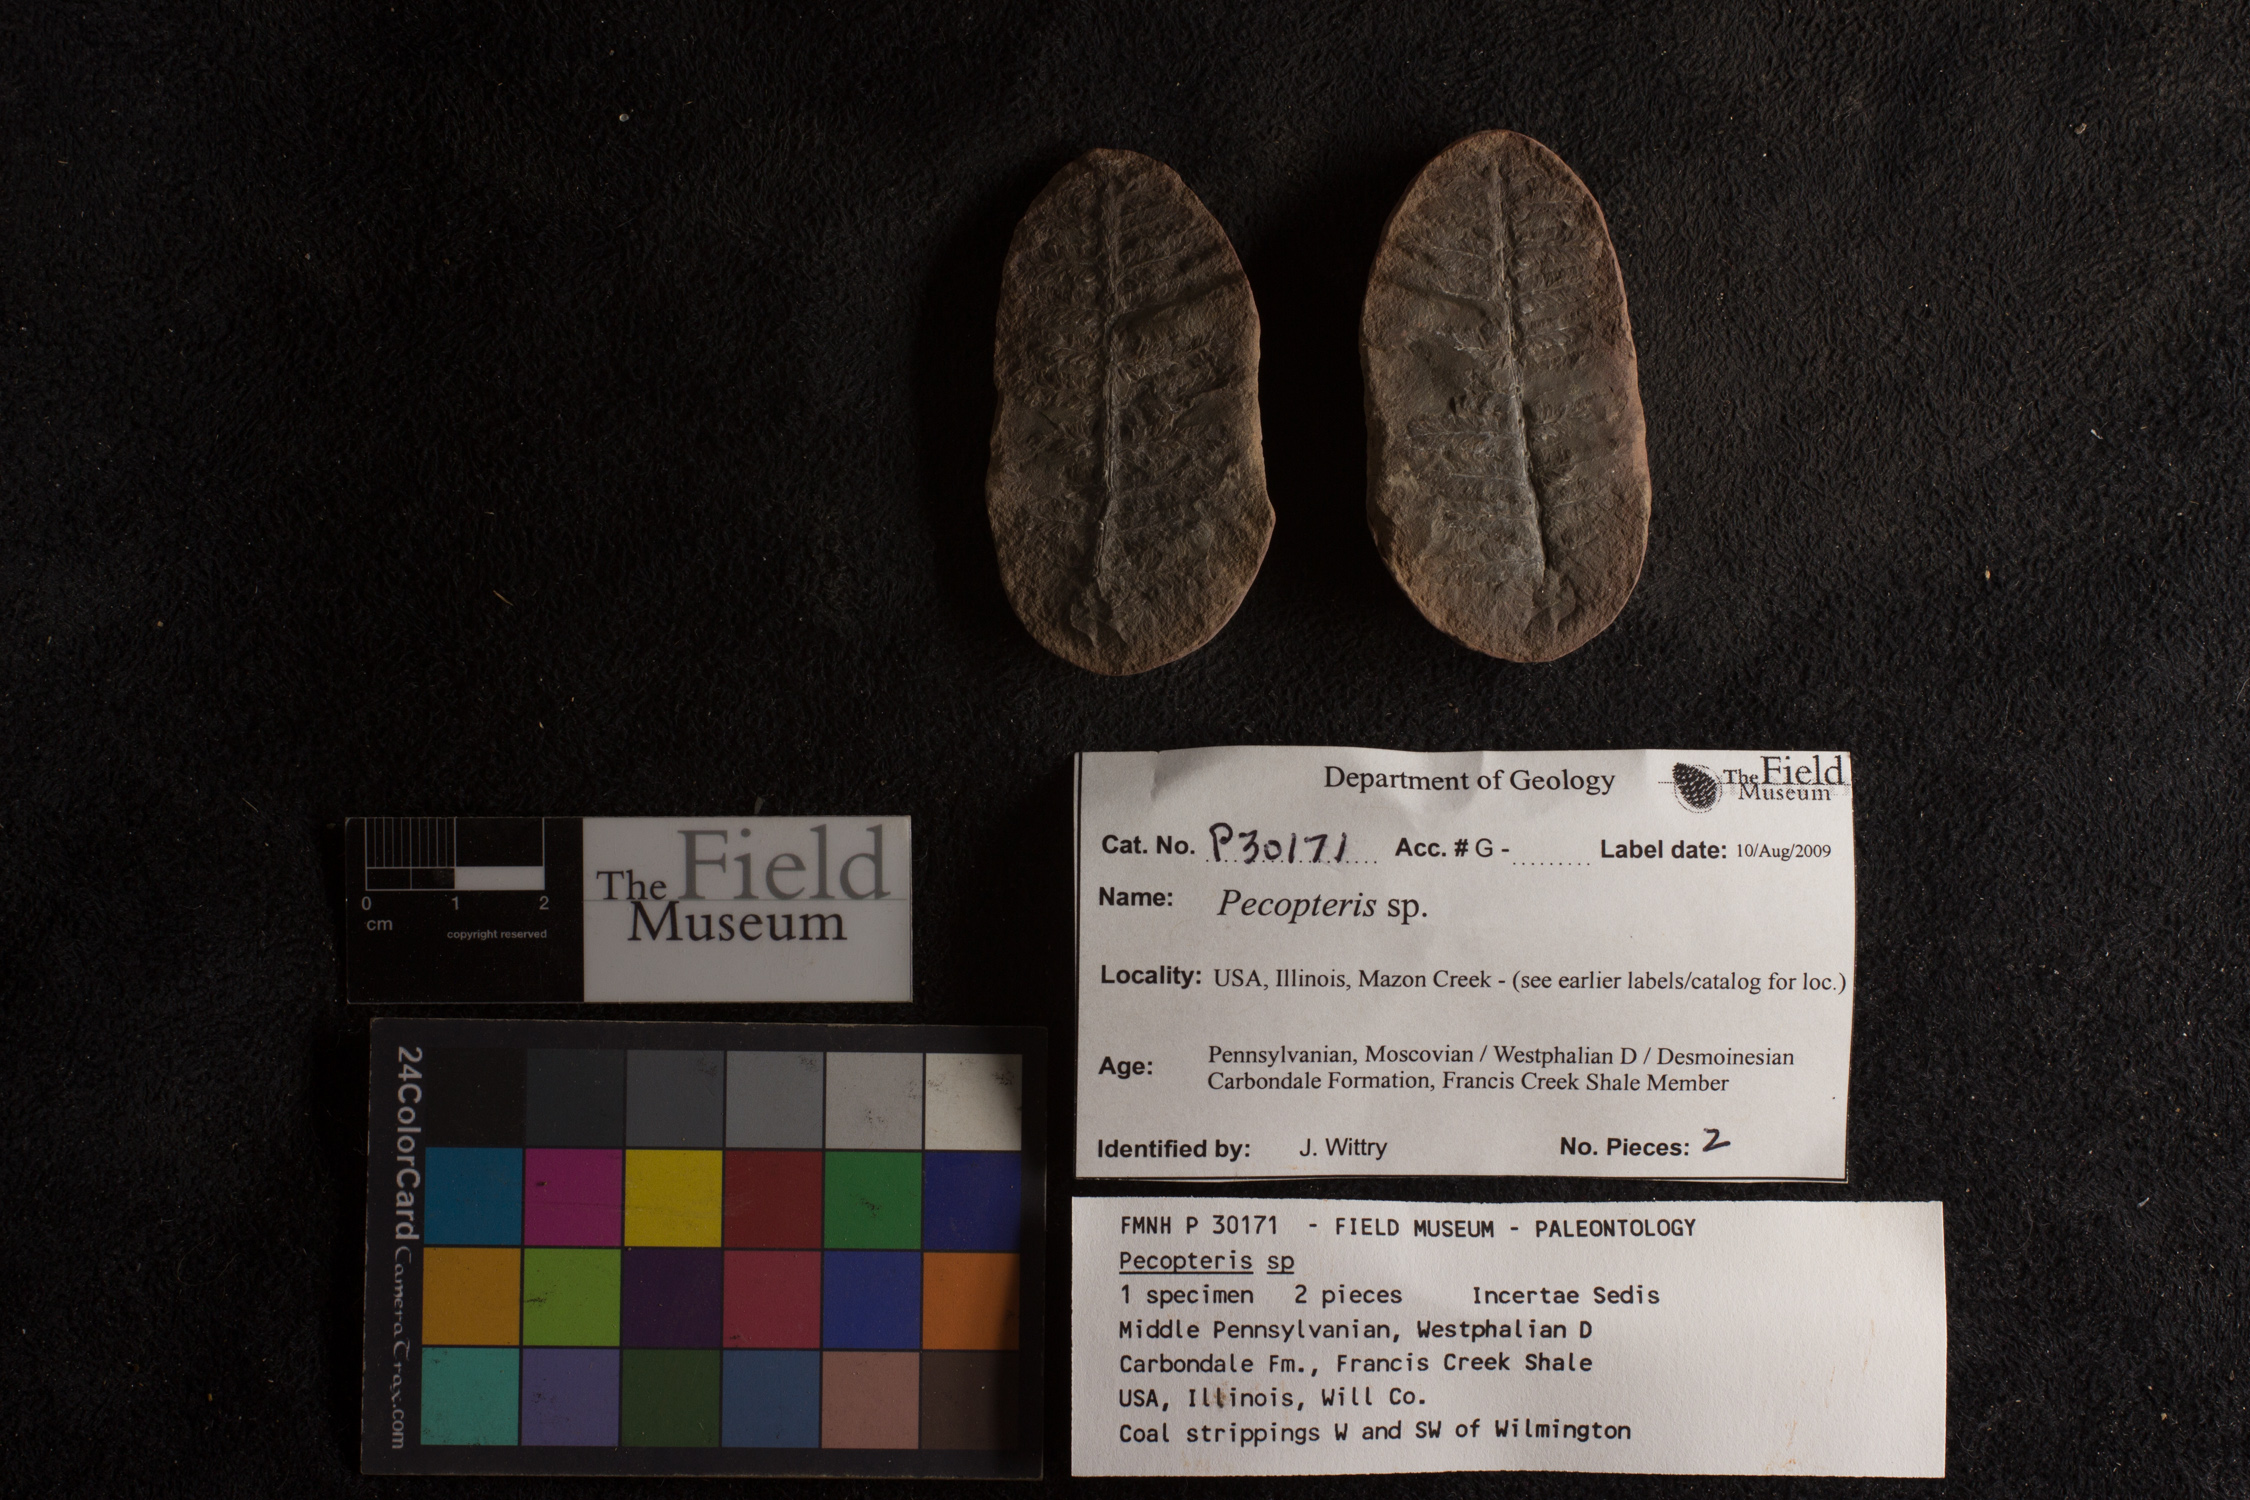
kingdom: Plantae
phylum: Tracheophyta
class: Polypodiopsida
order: Marattiales
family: Asterothecaceae
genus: Pecopteris
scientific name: Pecopteris
